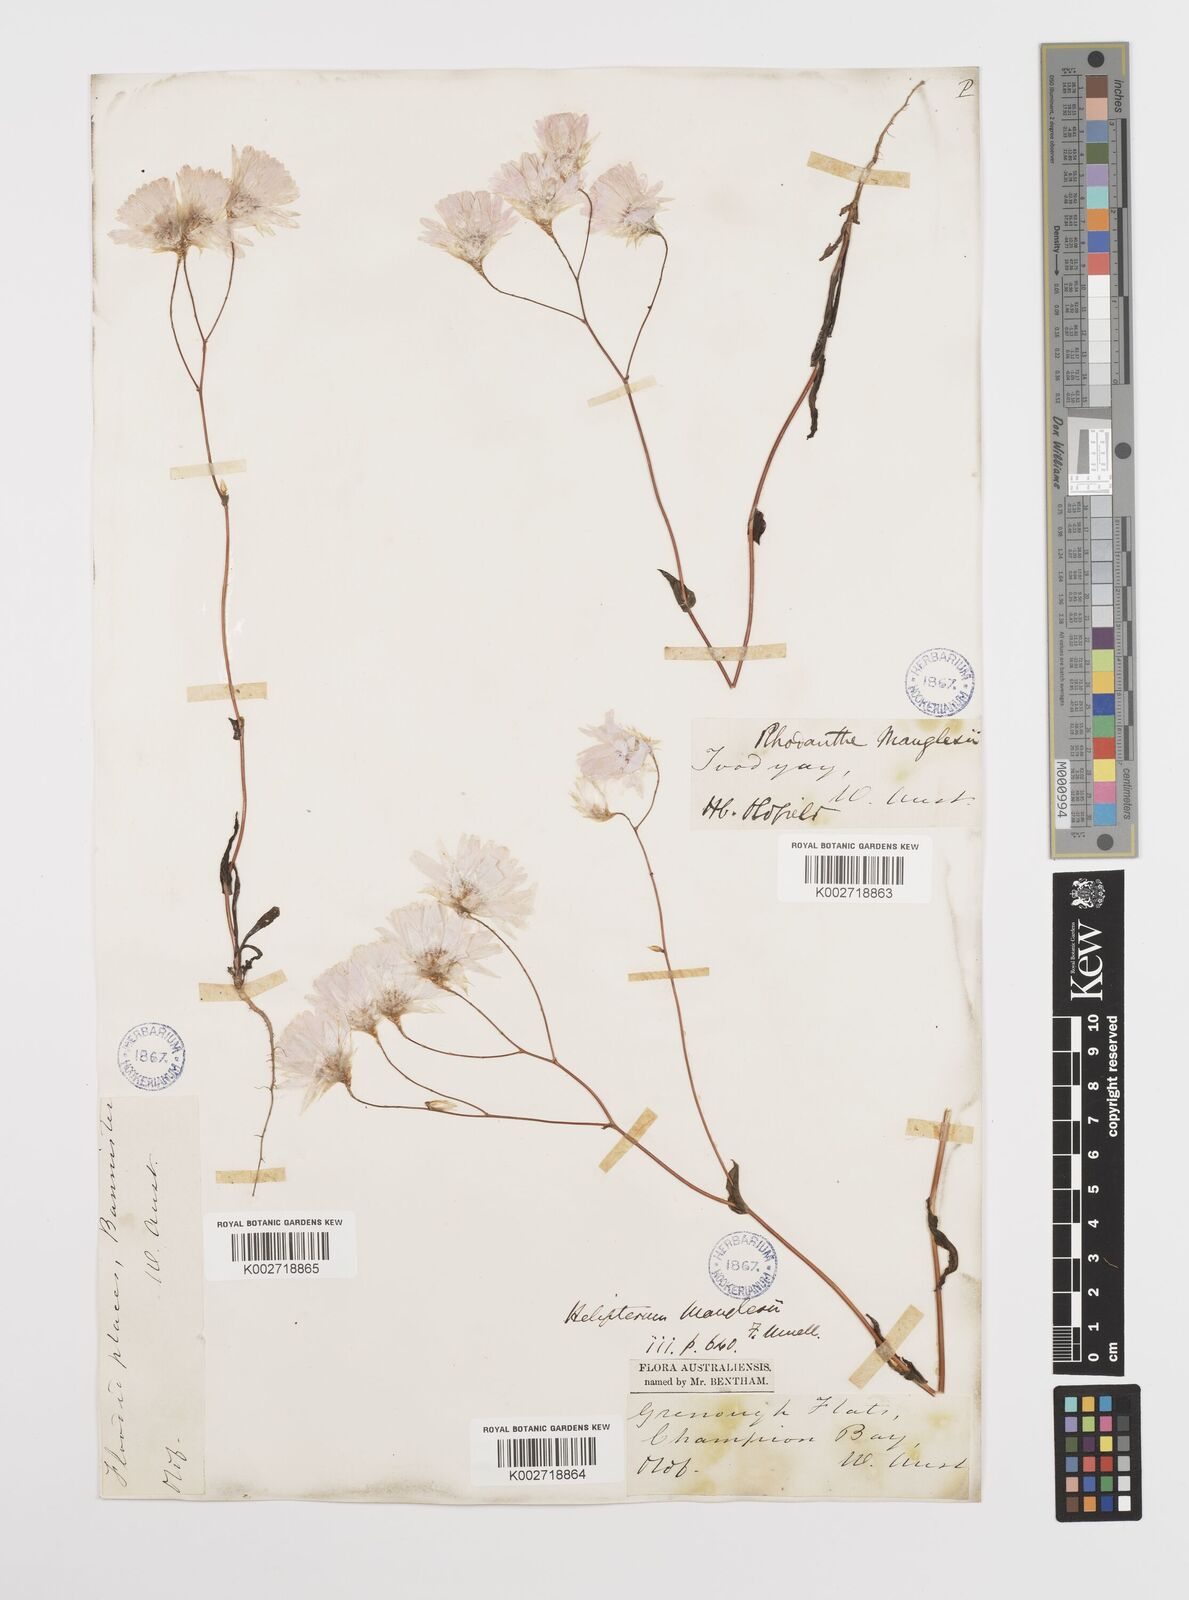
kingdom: Plantae
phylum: Tracheophyta
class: Magnoliopsida
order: Asterales
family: Asteraceae
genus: Rhodanthe
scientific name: Rhodanthe manglesii
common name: Pink sunray
